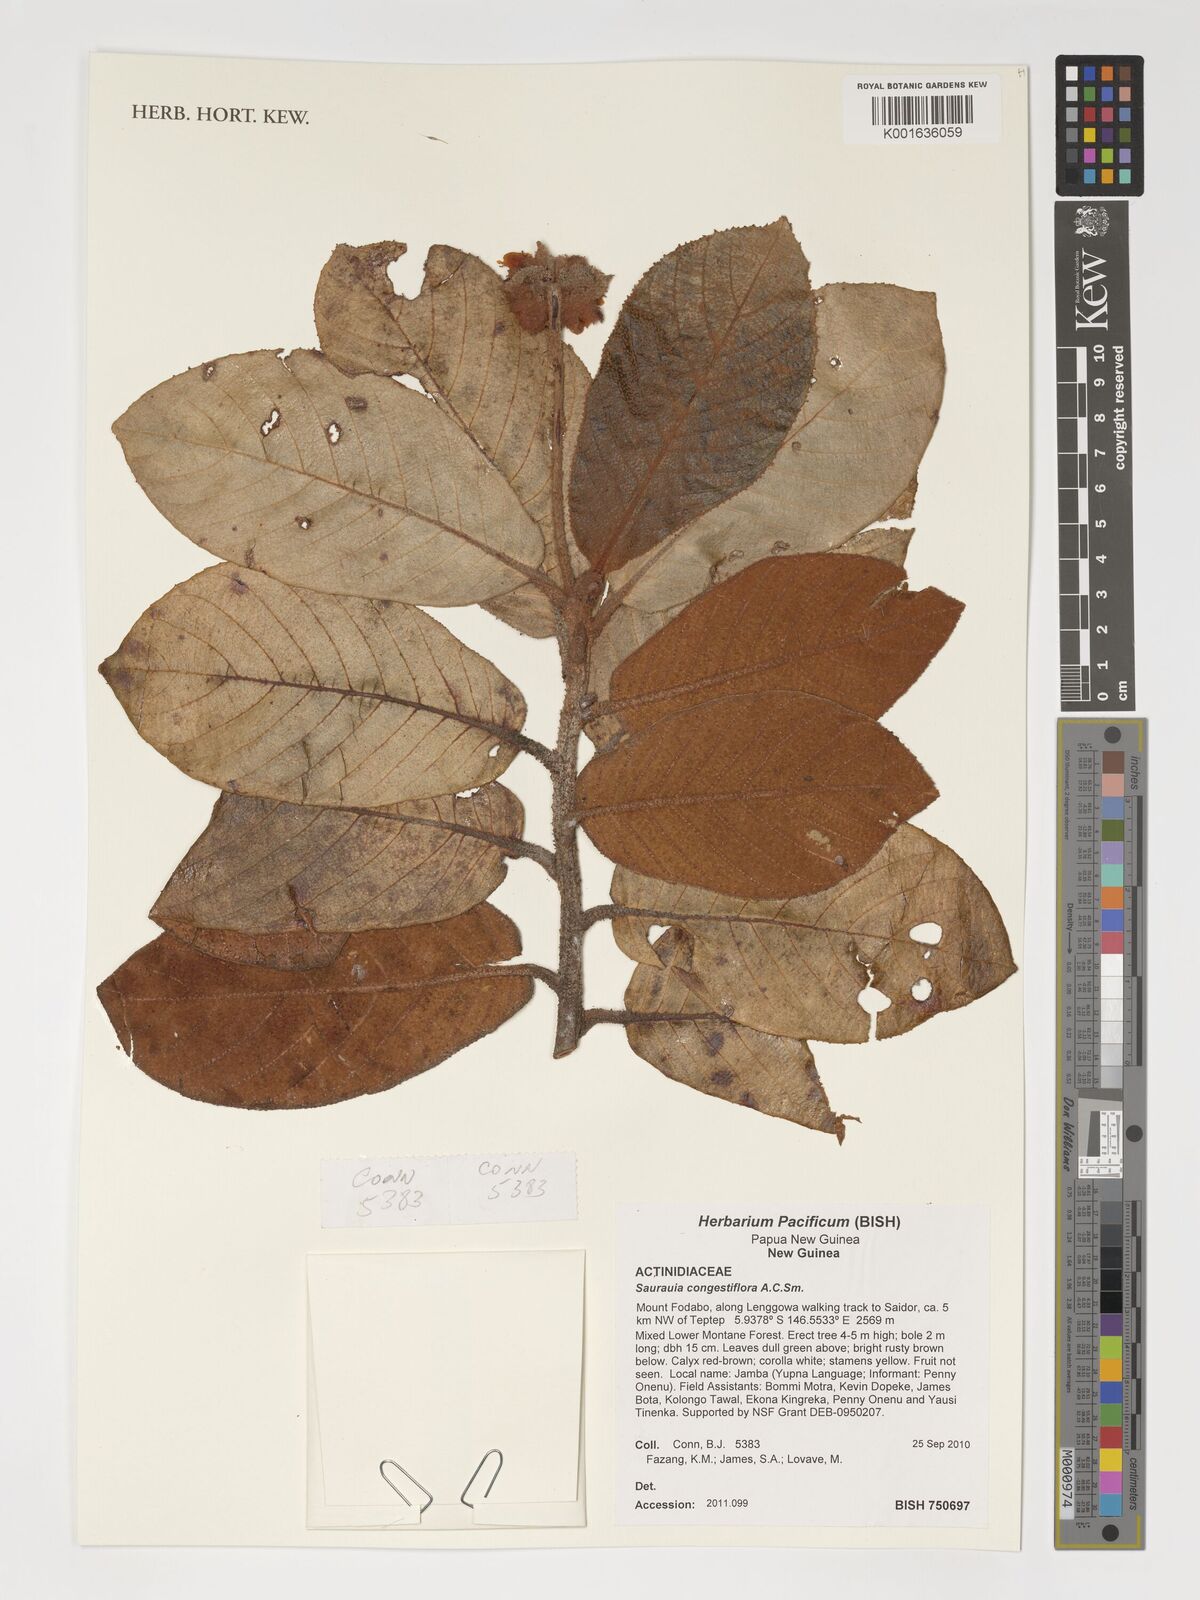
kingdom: Plantae
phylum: Tracheophyta
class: Magnoliopsida
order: Ericales
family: Actinidiaceae
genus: Saurauia
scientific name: Saurauia congestiflora
